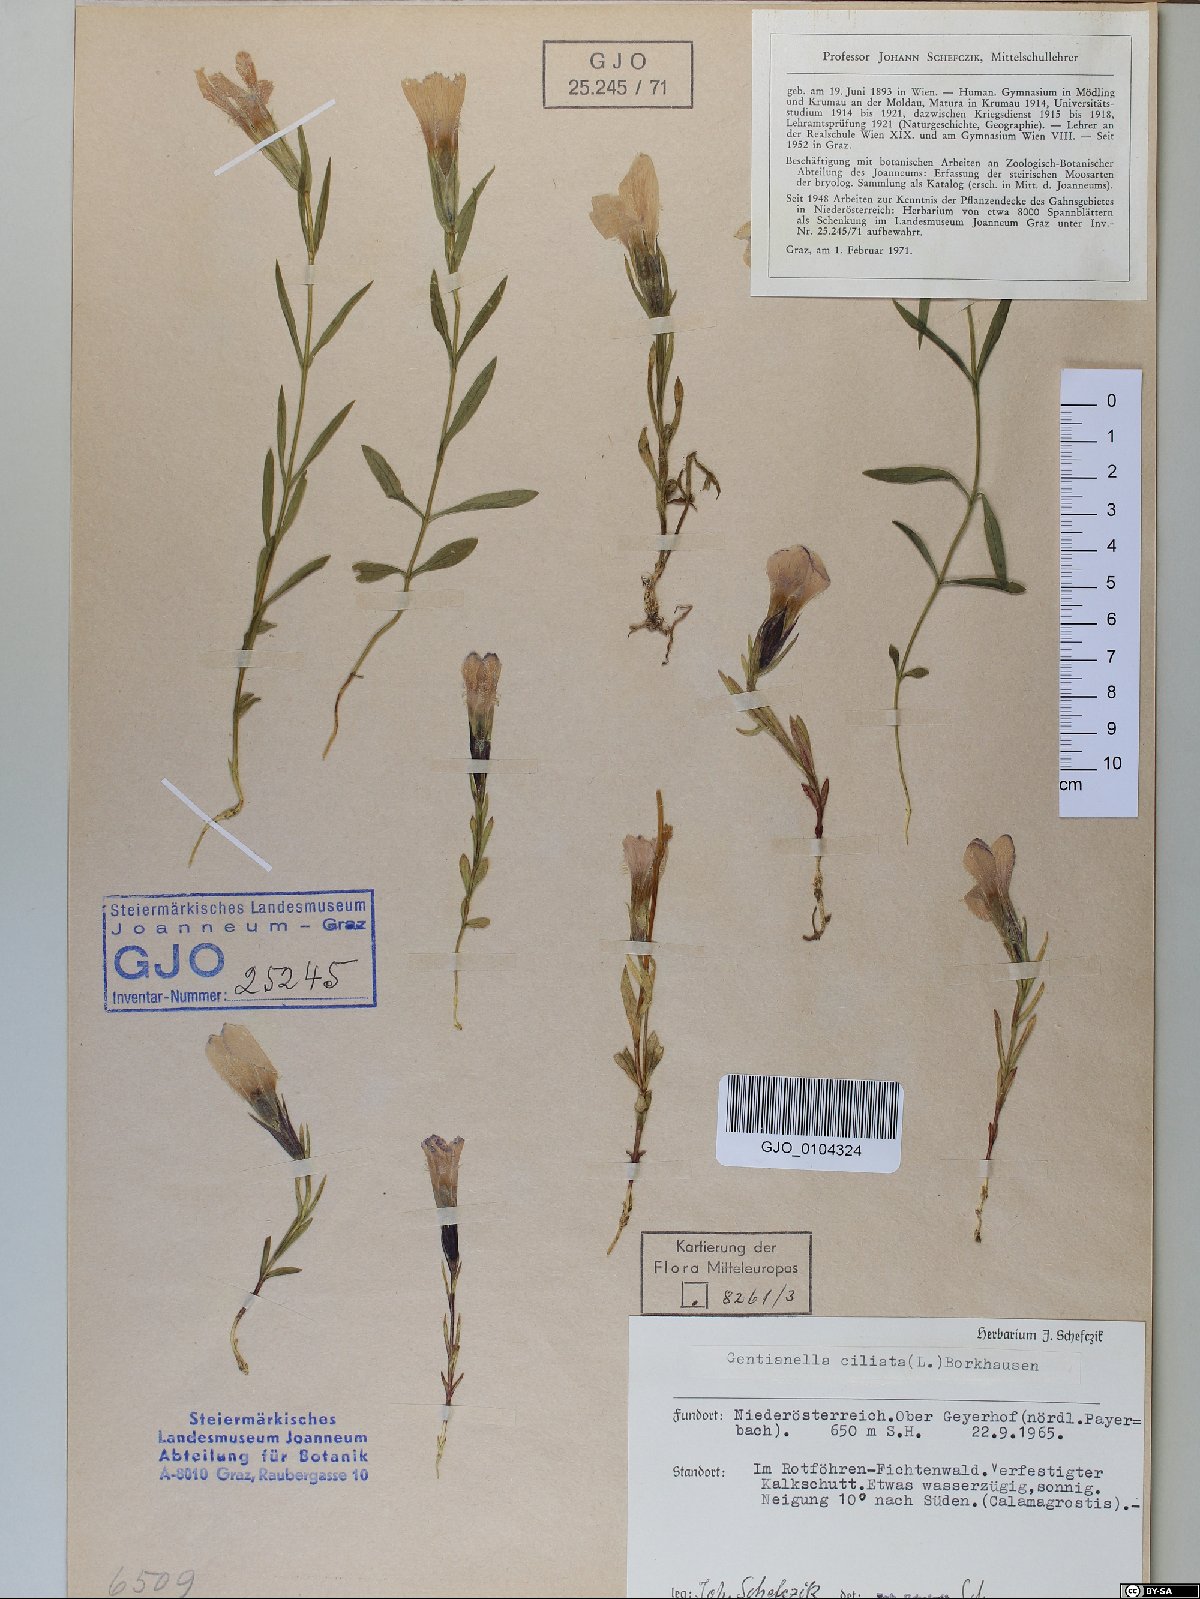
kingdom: Plantae
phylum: Tracheophyta
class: Magnoliopsida
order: Gentianales
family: Gentianaceae
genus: Gentianopsis
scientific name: Gentianopsis ciliata
